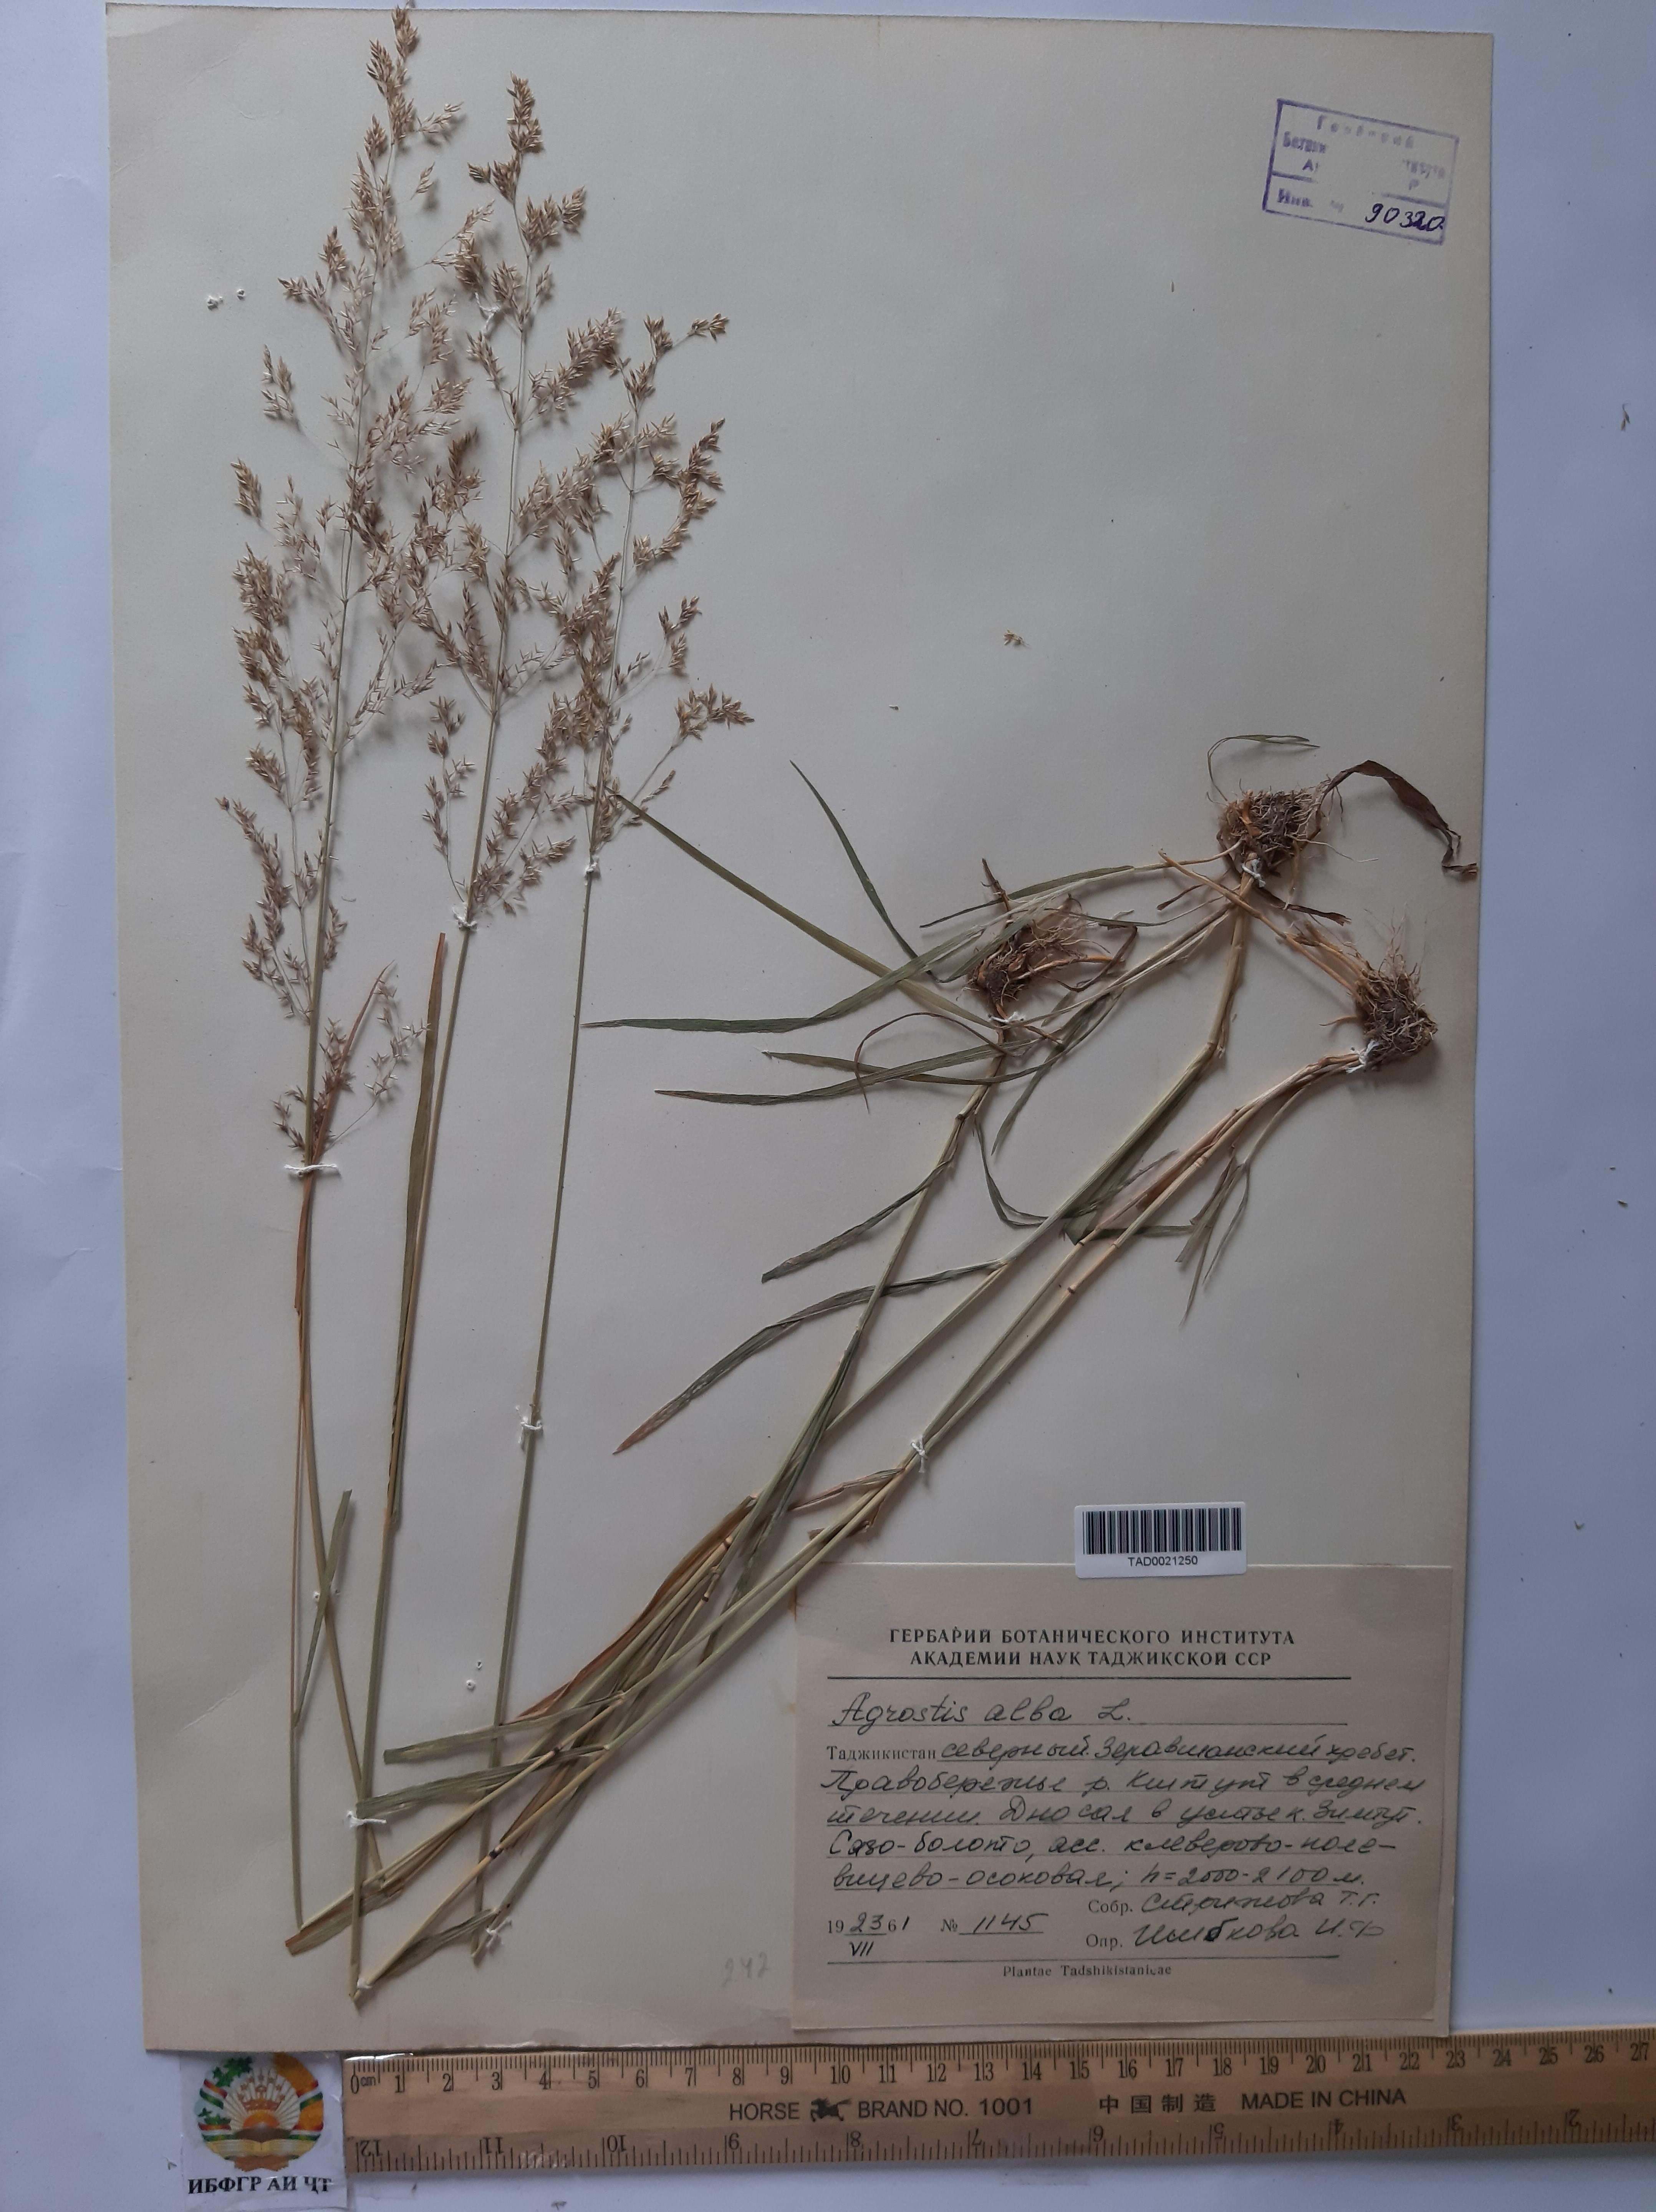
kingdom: Plantae
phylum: Tracheophyta
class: Liliopsida
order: Poales
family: Poaceae
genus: Poa
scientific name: Poa nemoralis
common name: Wood bluegrass
